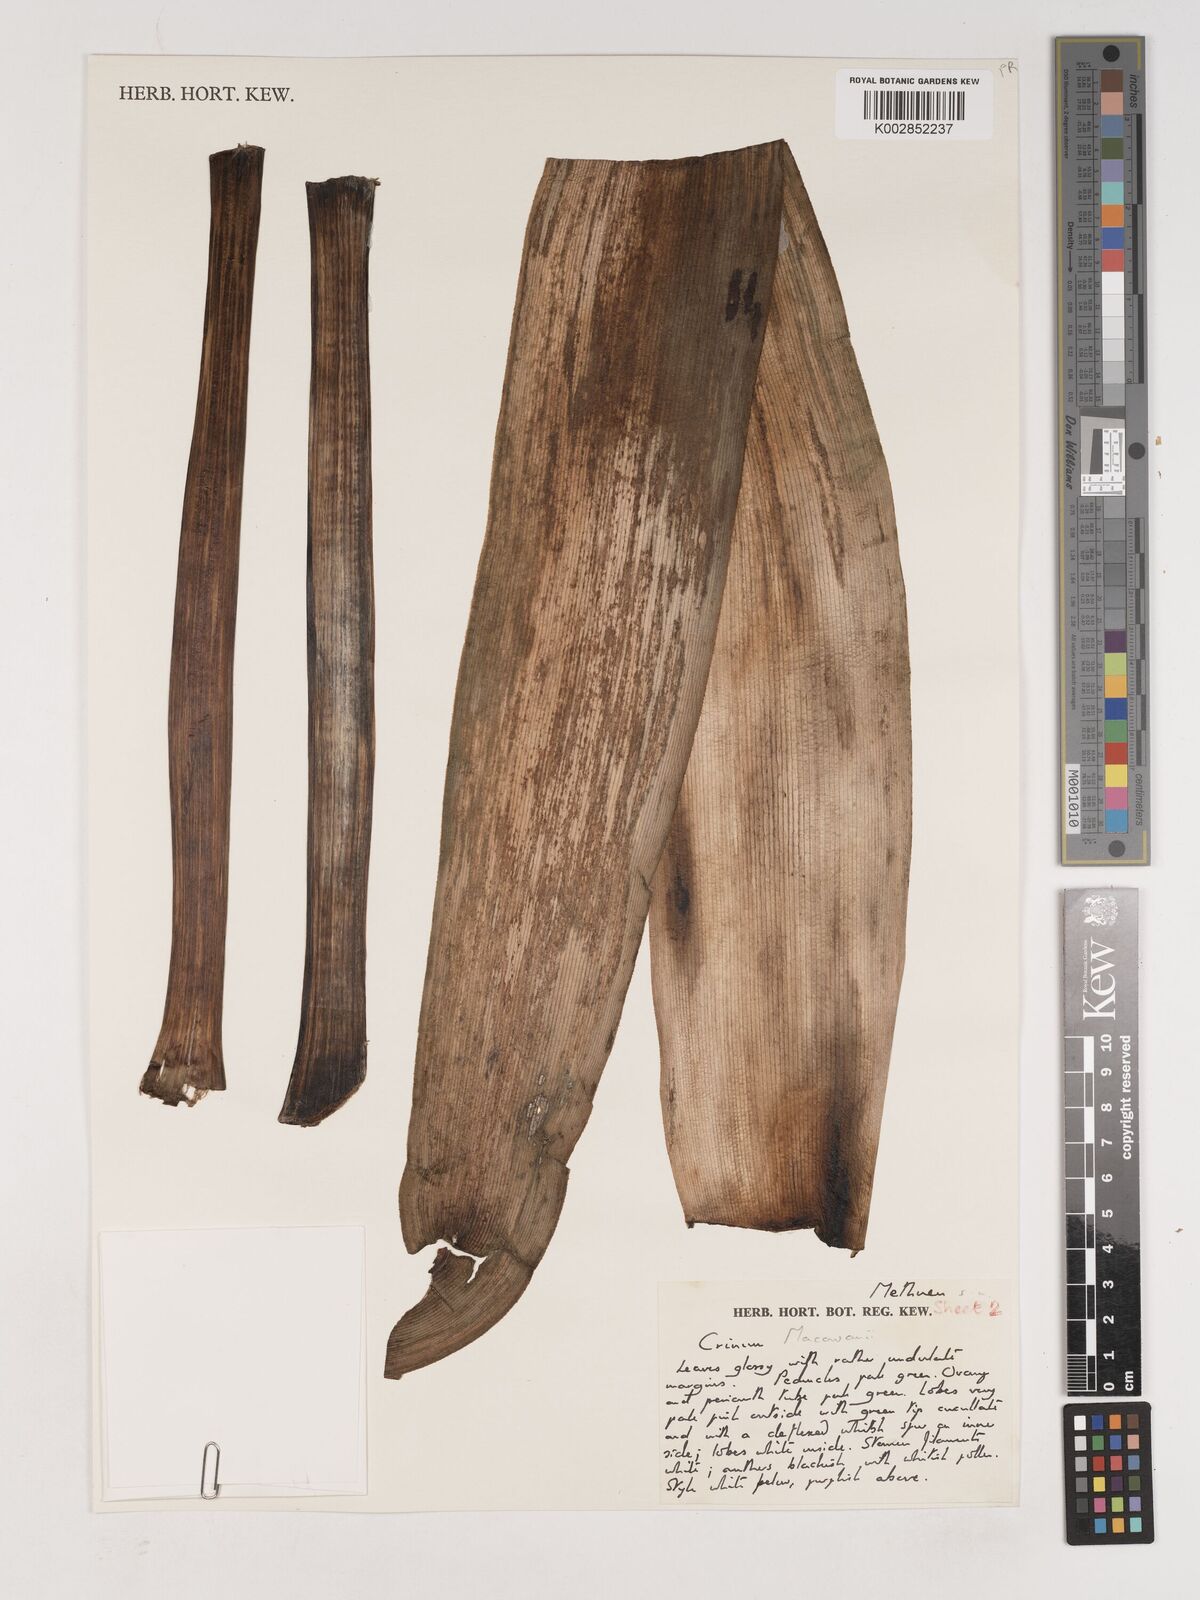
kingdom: Plantae
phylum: Tracheophyta
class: Liliopsida
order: Asparagales
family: Amaryllidaceae
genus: Crinum
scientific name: Crinum macowanii
